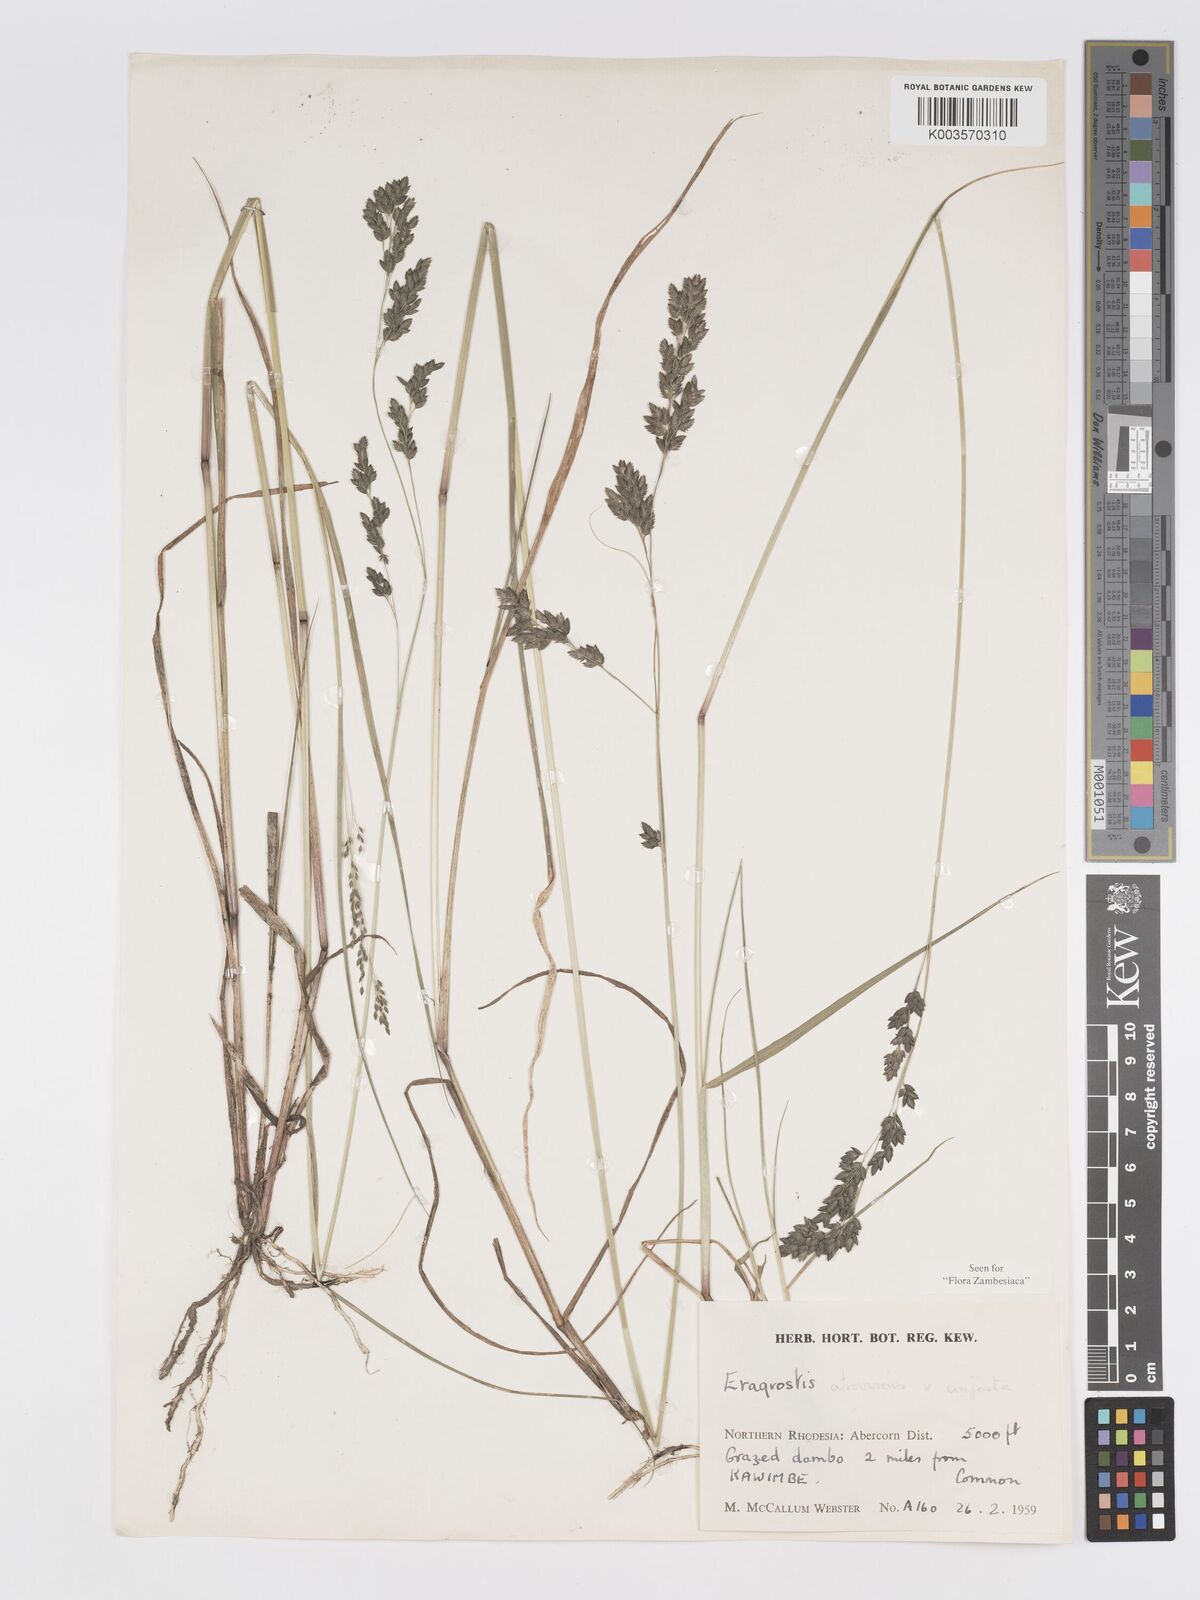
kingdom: Plantae
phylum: Tracheophyta
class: Liliopsida
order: Poales
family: Poaceae
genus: Eragrostis
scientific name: Eragrostis botryodes
